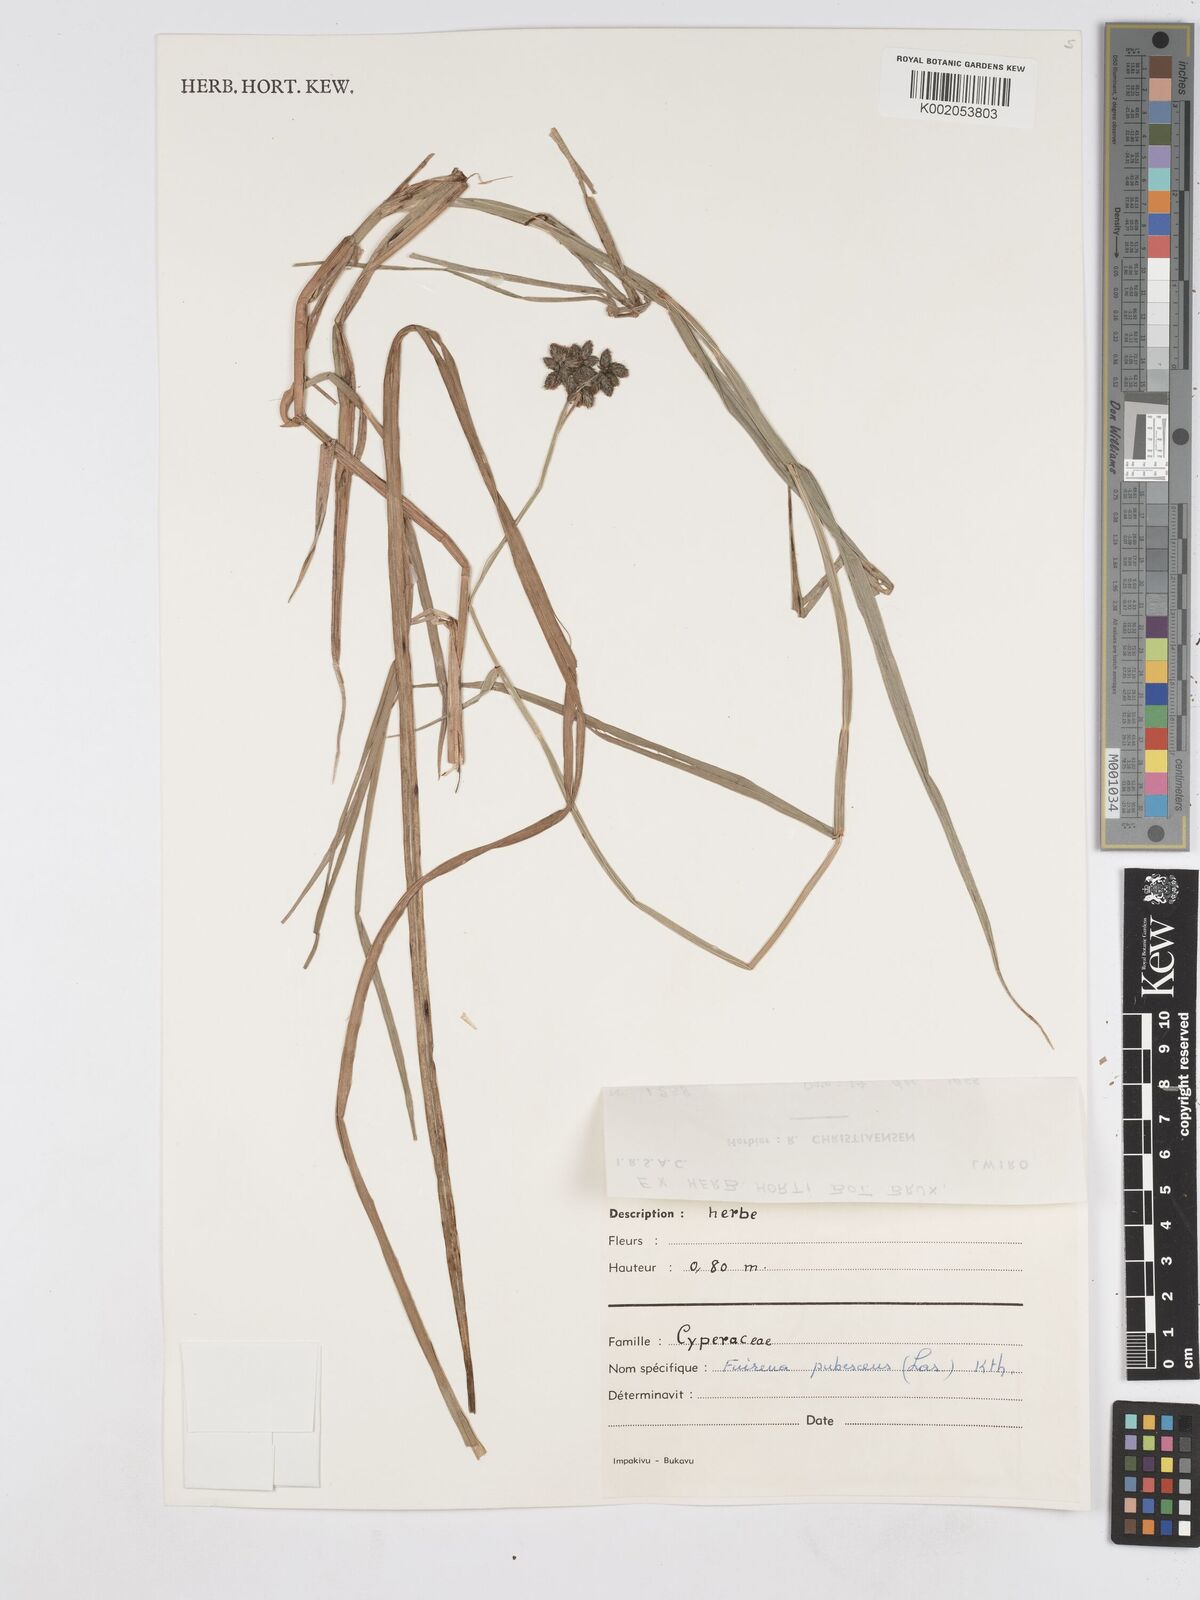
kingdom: Plantae
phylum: Tracheophyta
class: Liliopsida
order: Poales
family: Cyperaceae
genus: Fuirena
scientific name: Fuirena pubescens
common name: Hairy sedge
